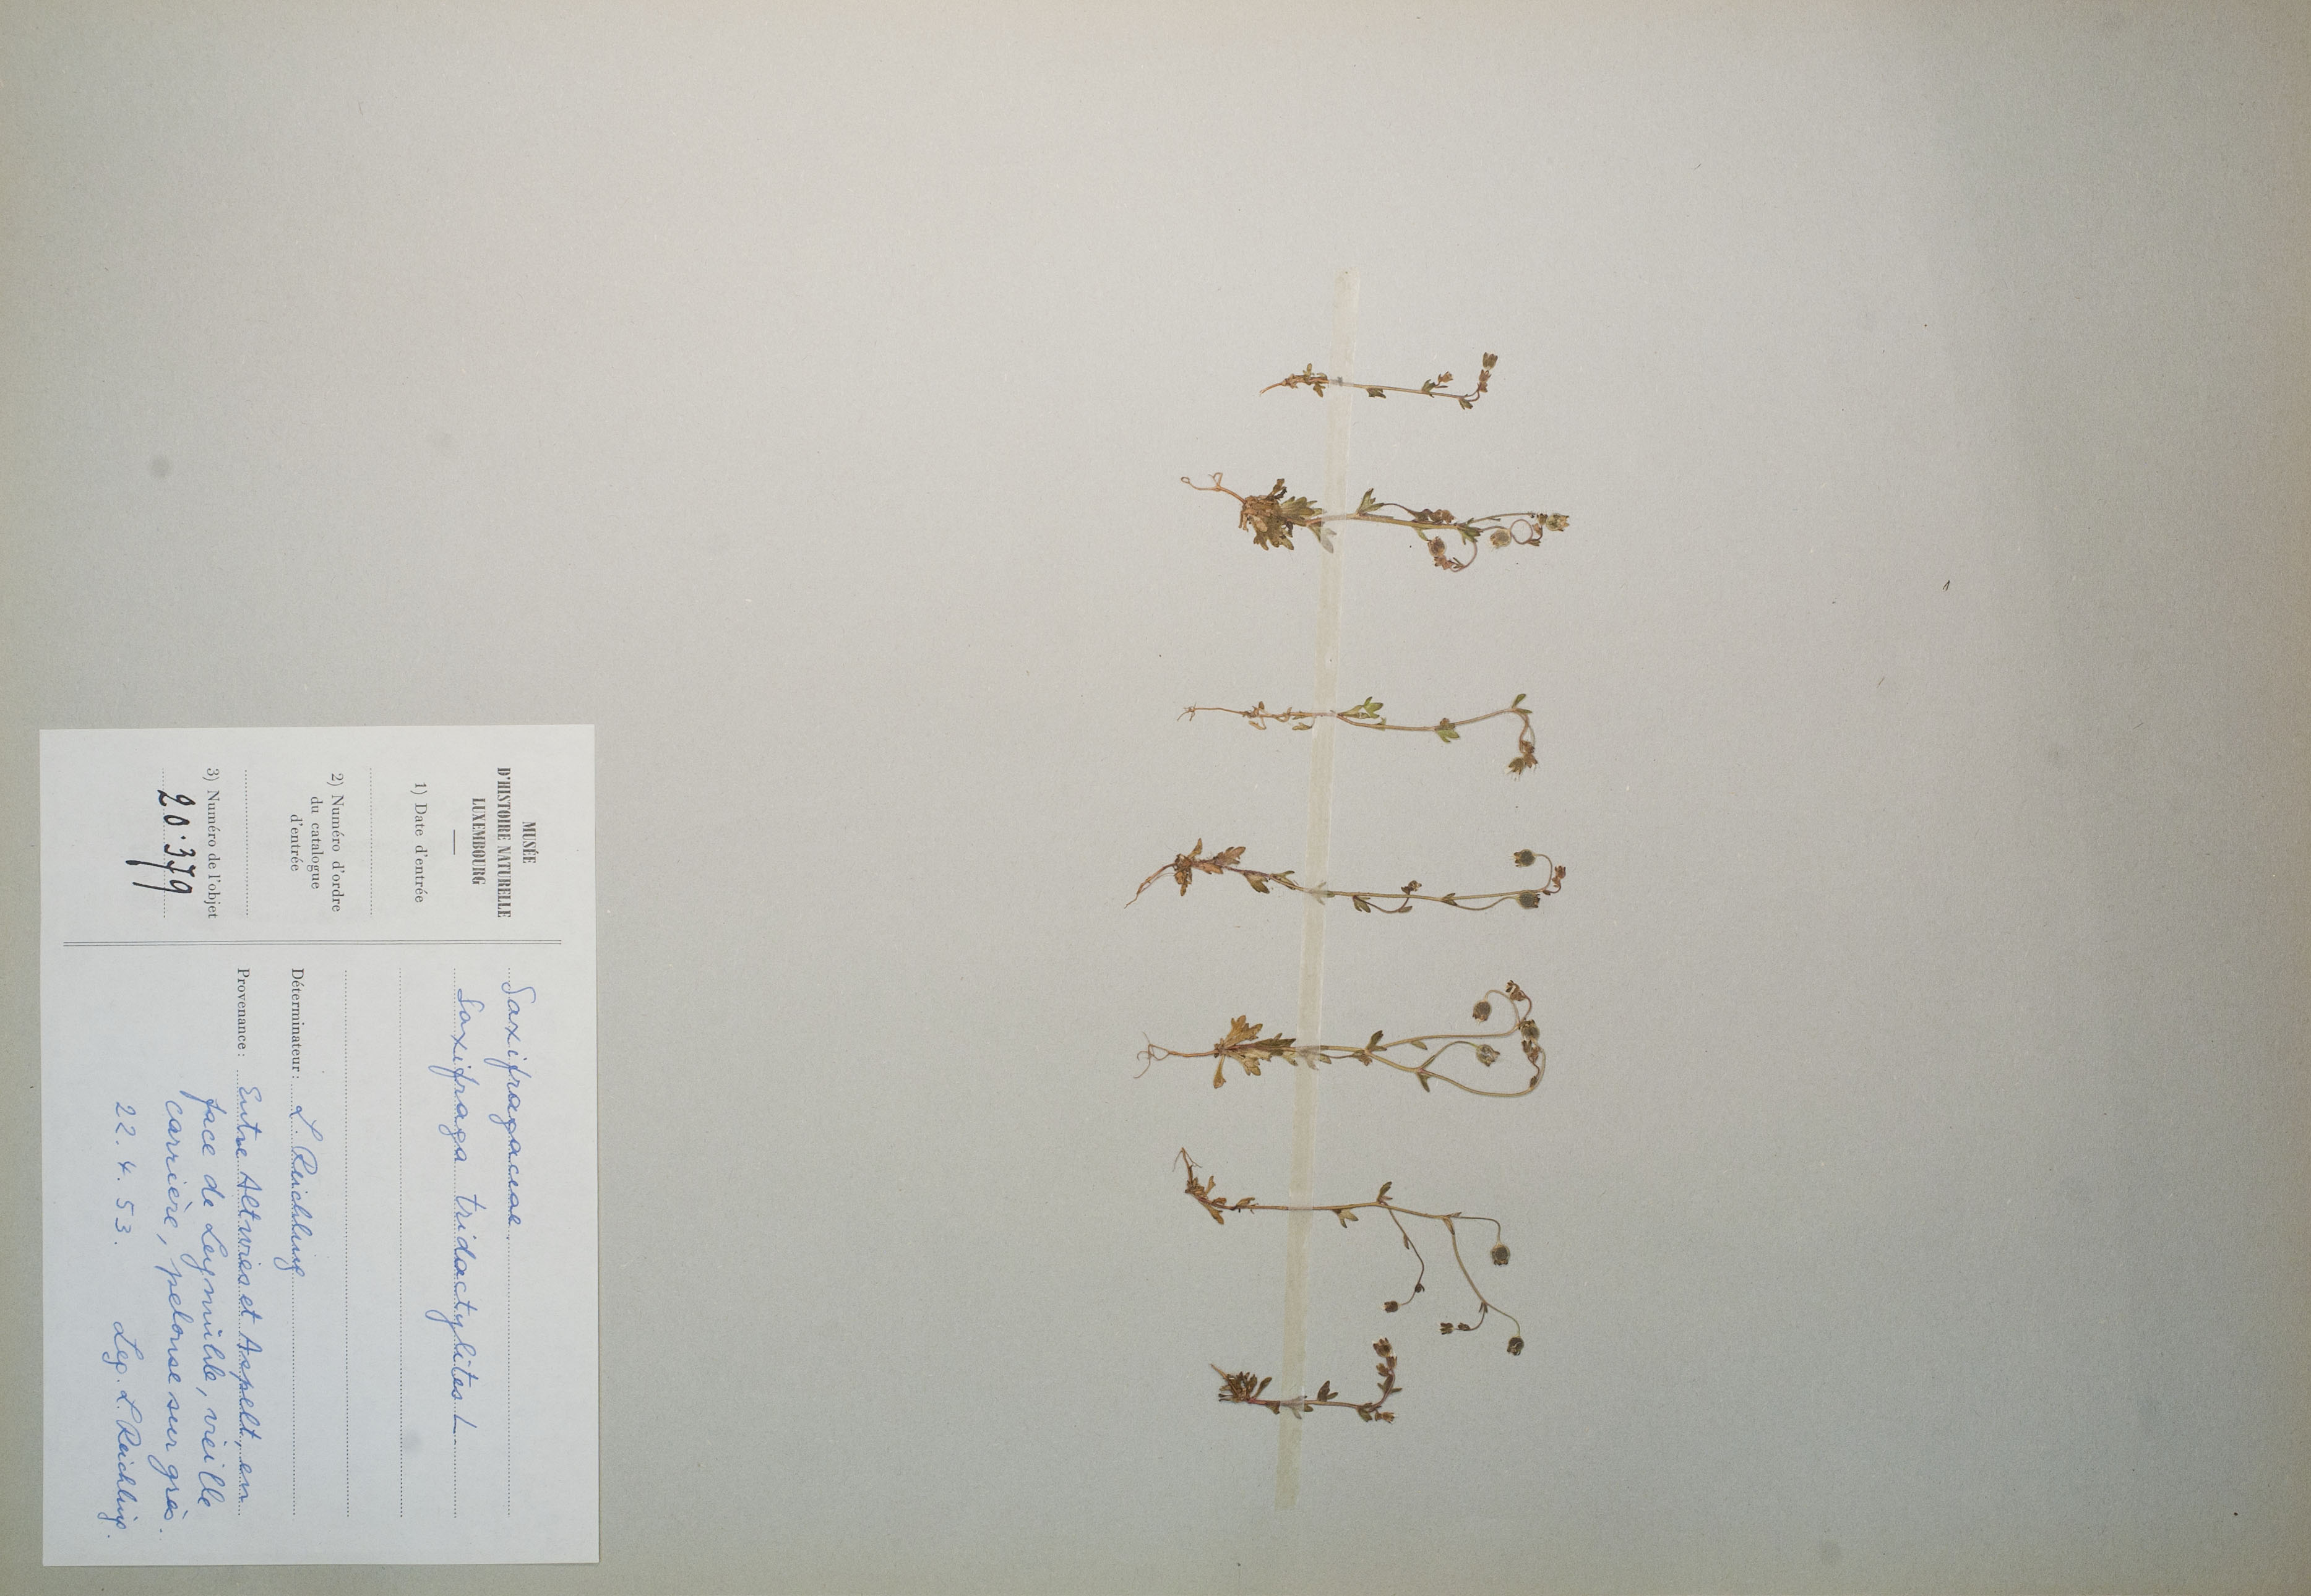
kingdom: Plantae
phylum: Tracheophyta
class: Magnoliopsida
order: Saxifragales
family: Saxifragaceae
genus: Saxifraga
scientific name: Saxifraga tridactylites
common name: Rue-leaved saxifrage
